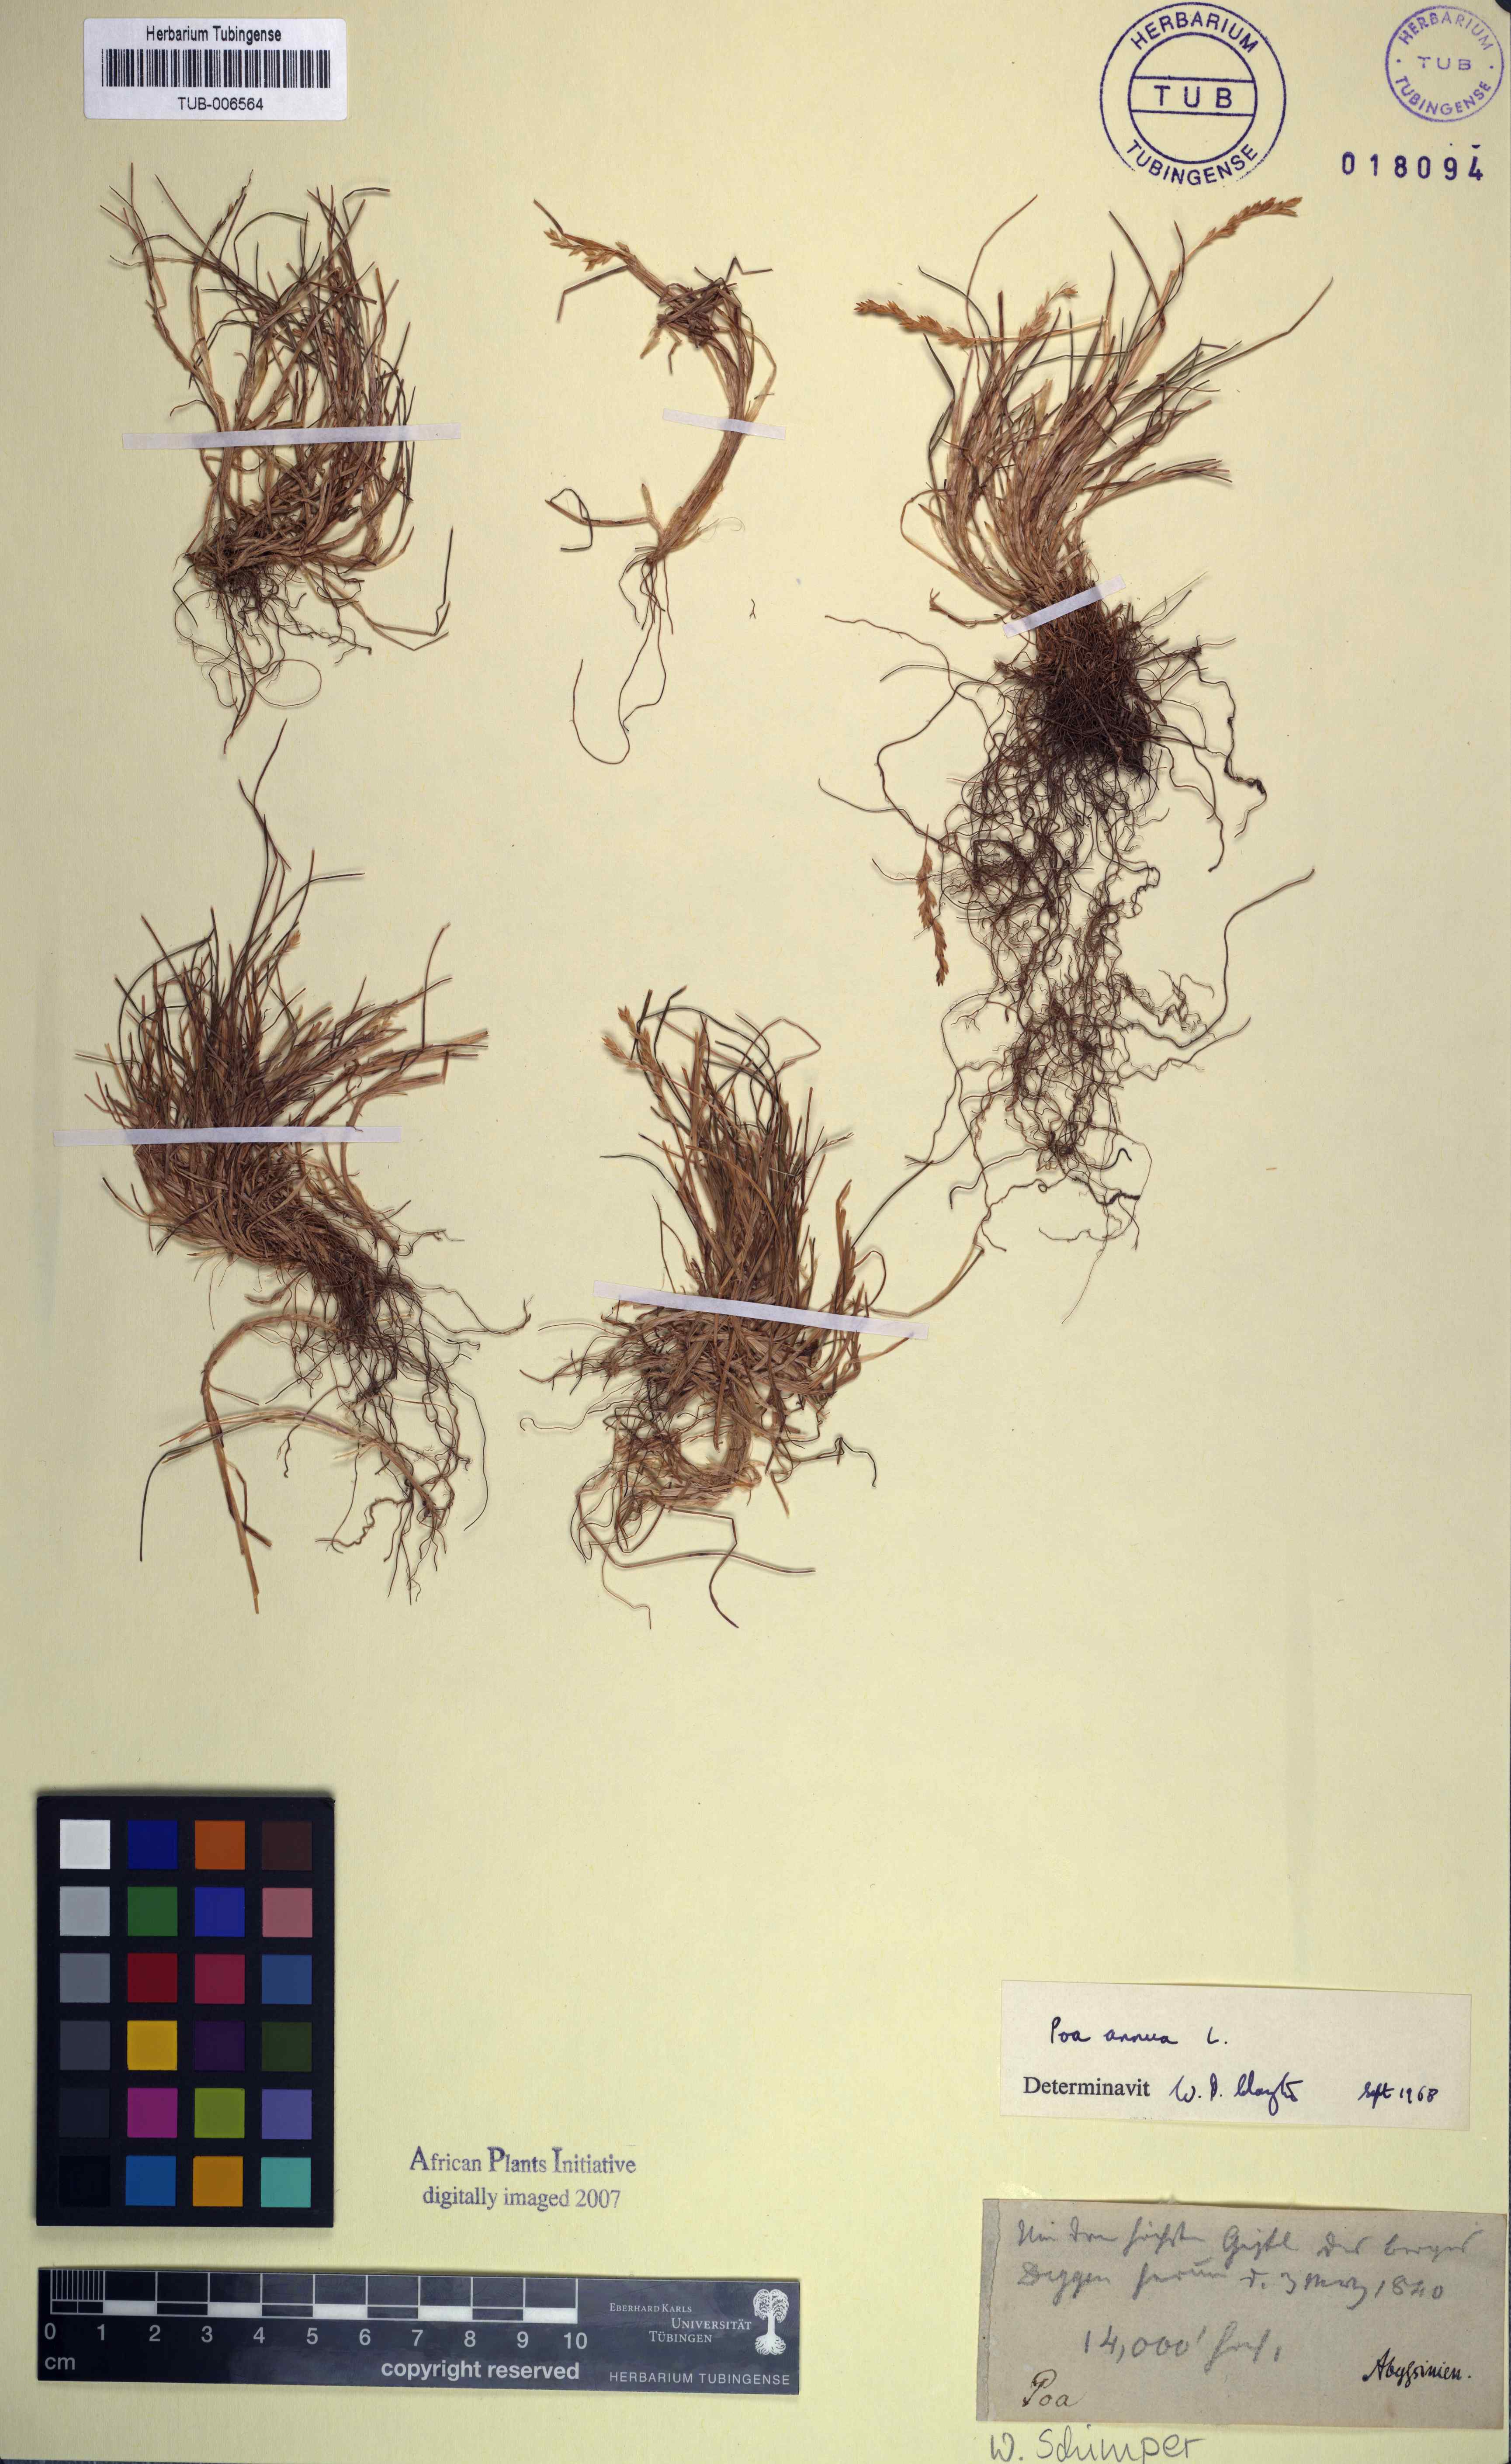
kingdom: Plantae
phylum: Tracheophyta
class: Liliopsida
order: Poales
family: Poaceae
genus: Poa
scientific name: Poa annua
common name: Annual bluegrass
